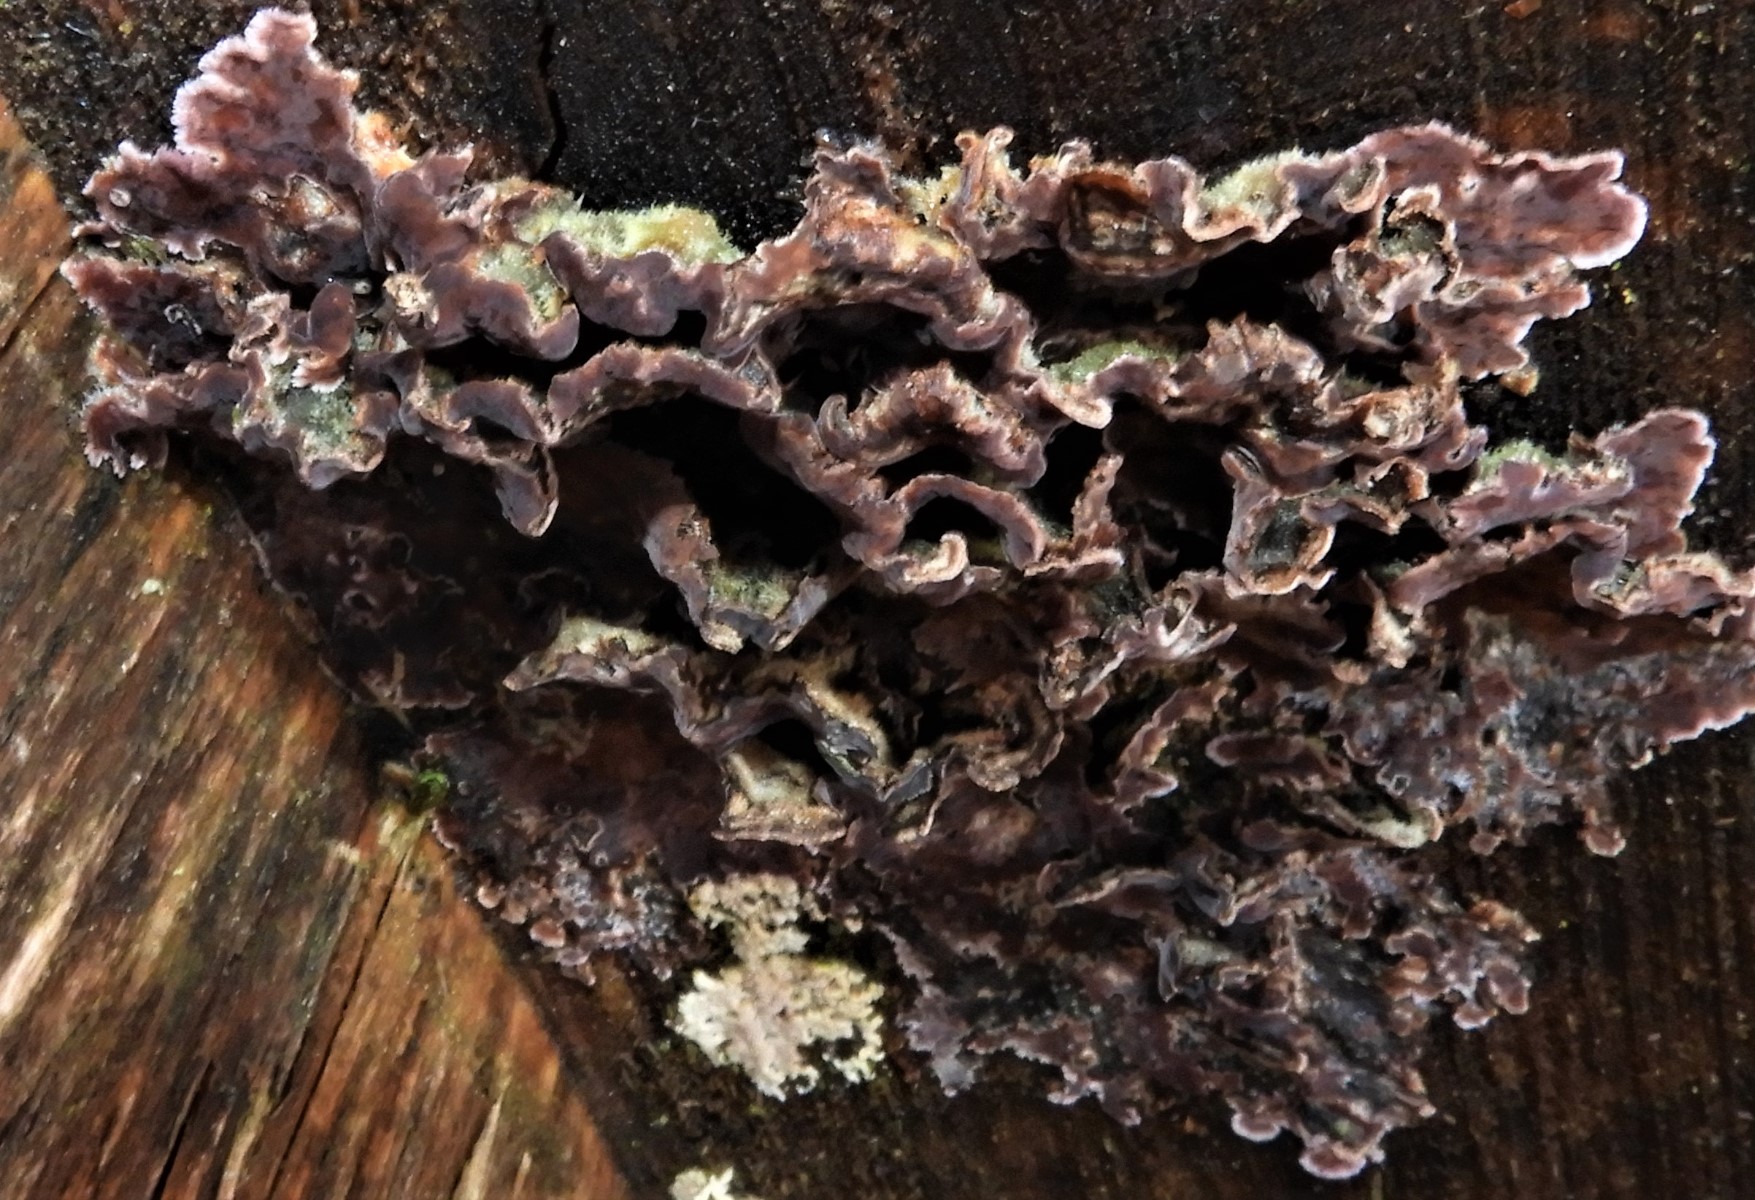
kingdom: Fungi
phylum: Basidiomycota
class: Agaricomycetes
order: Agaricales
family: Cyphellaceae
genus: Chondrostereum
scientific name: Chondrostereum purpureum
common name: purpurlædersvamp
